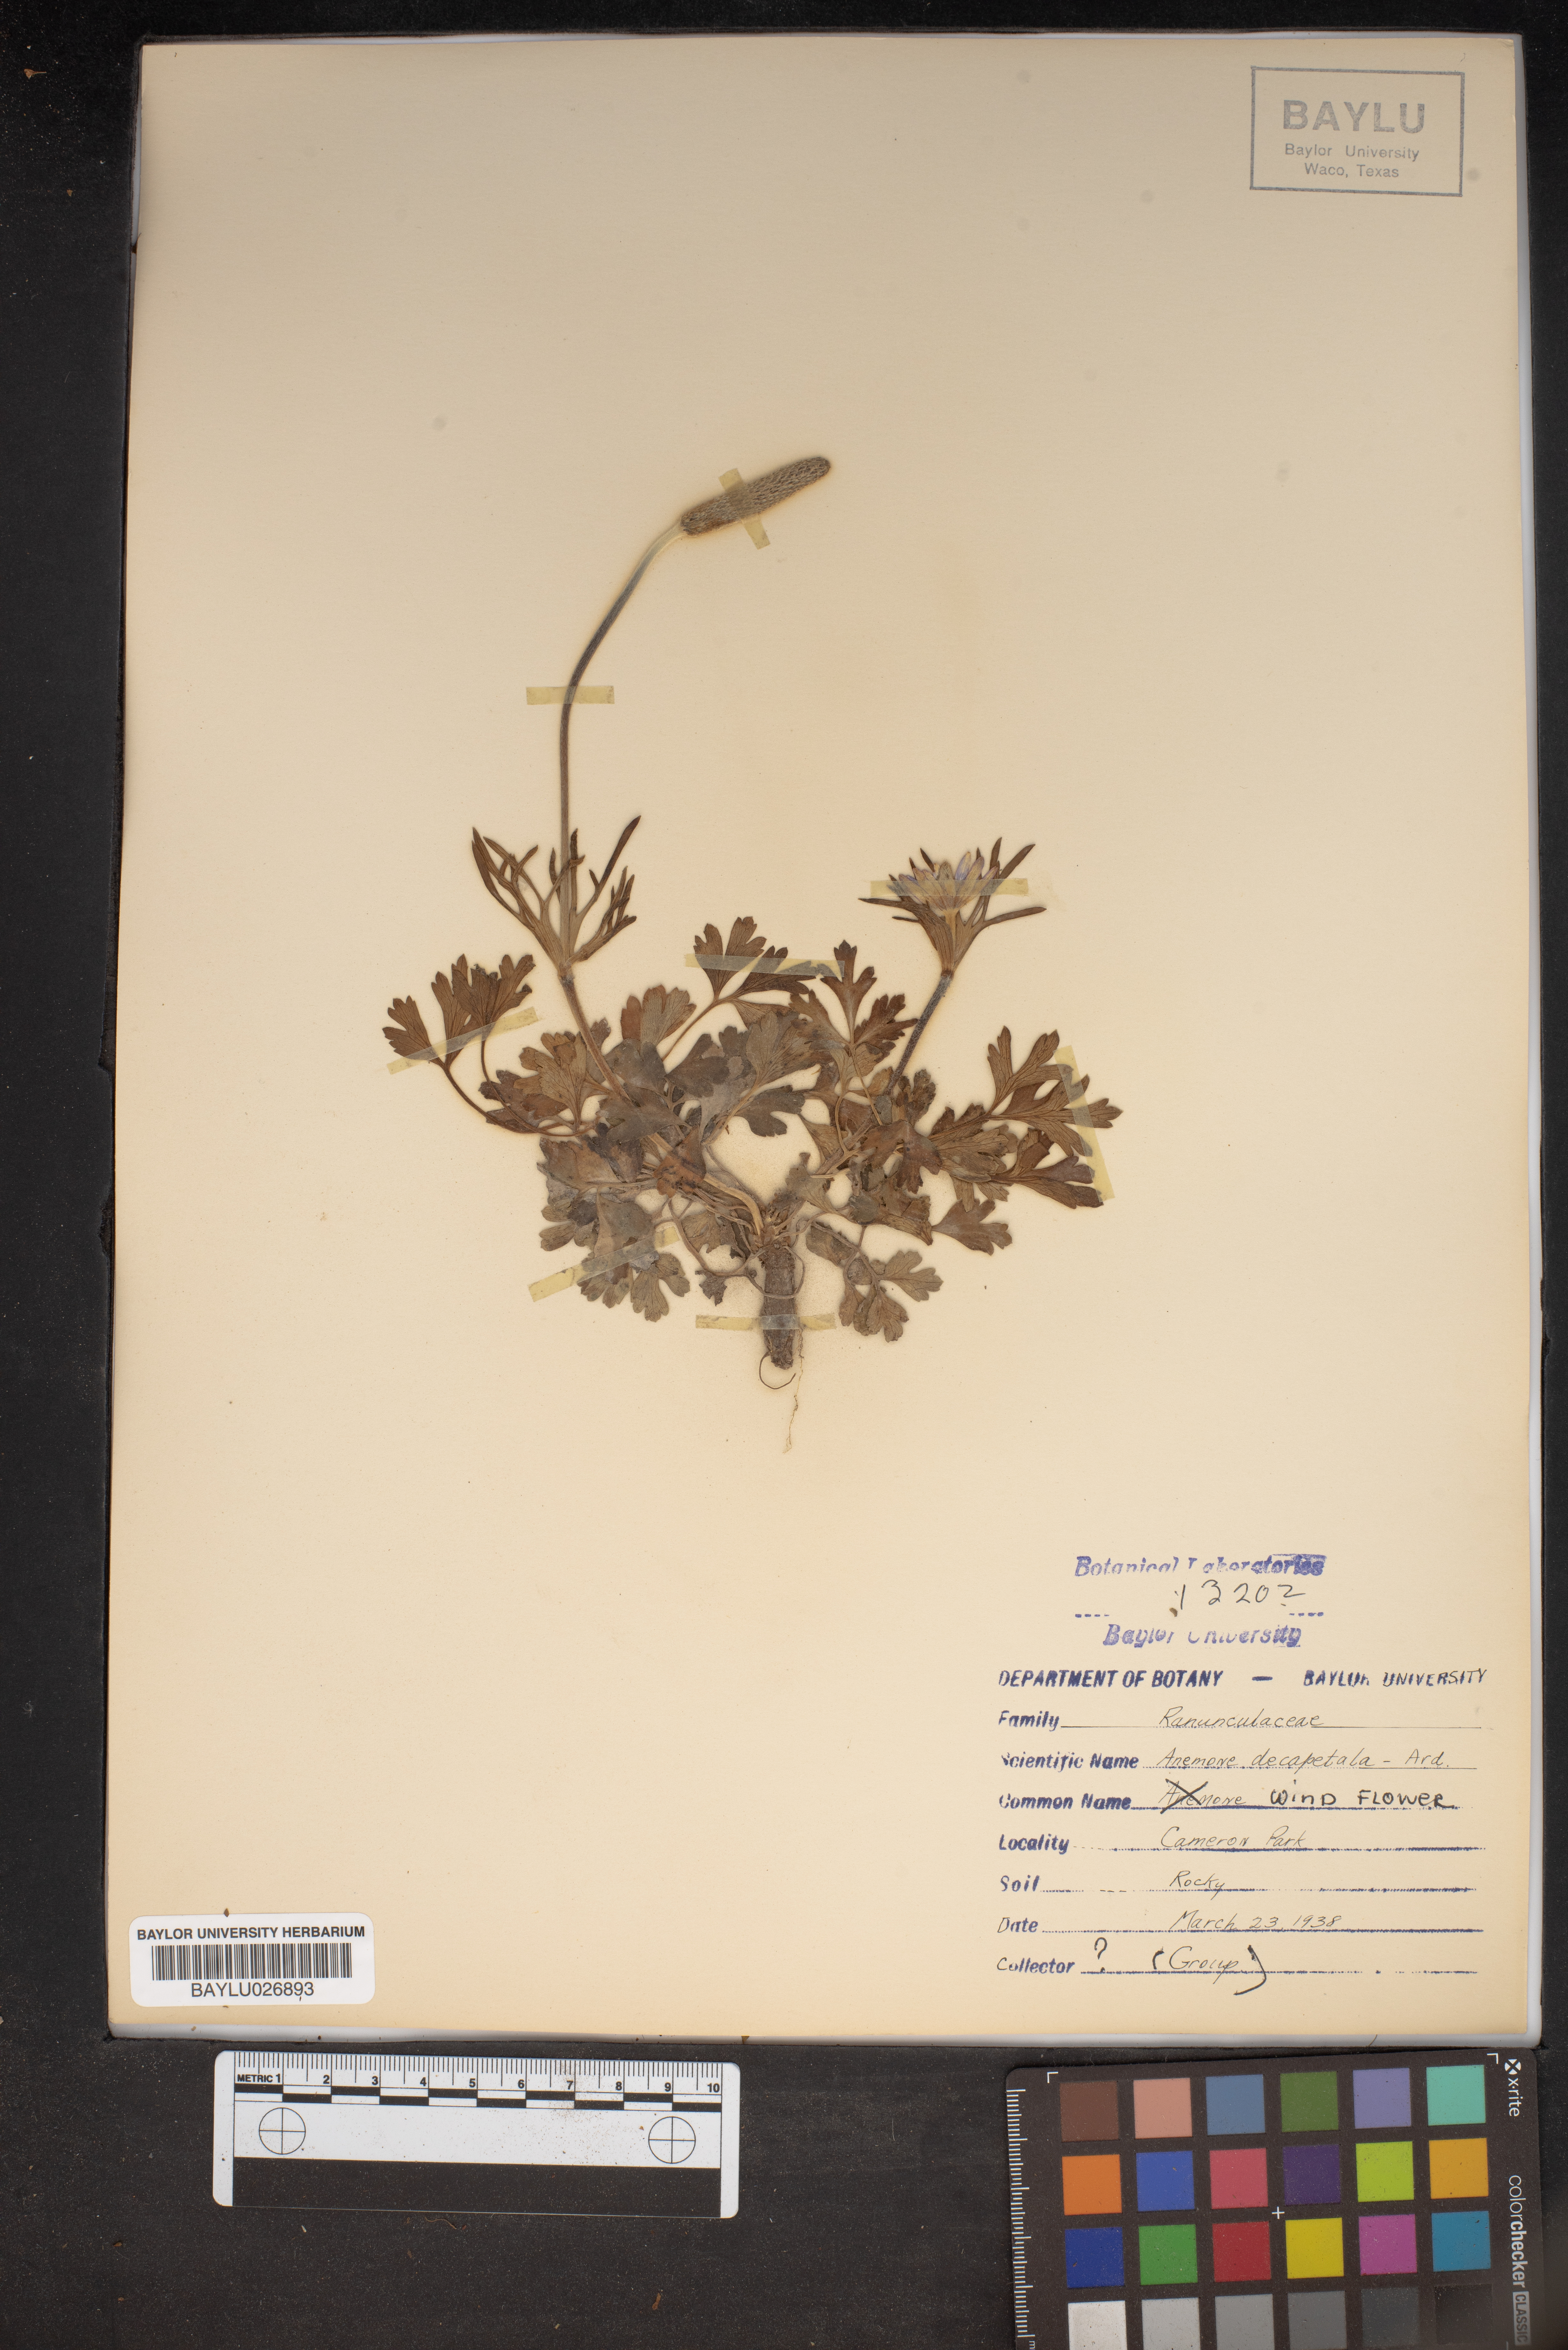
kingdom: Plantae
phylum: Tracheophyta
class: Magnoliopsida
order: Ranunculales
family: Ranunculaceae
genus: Anemone
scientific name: Anemone decapetala
